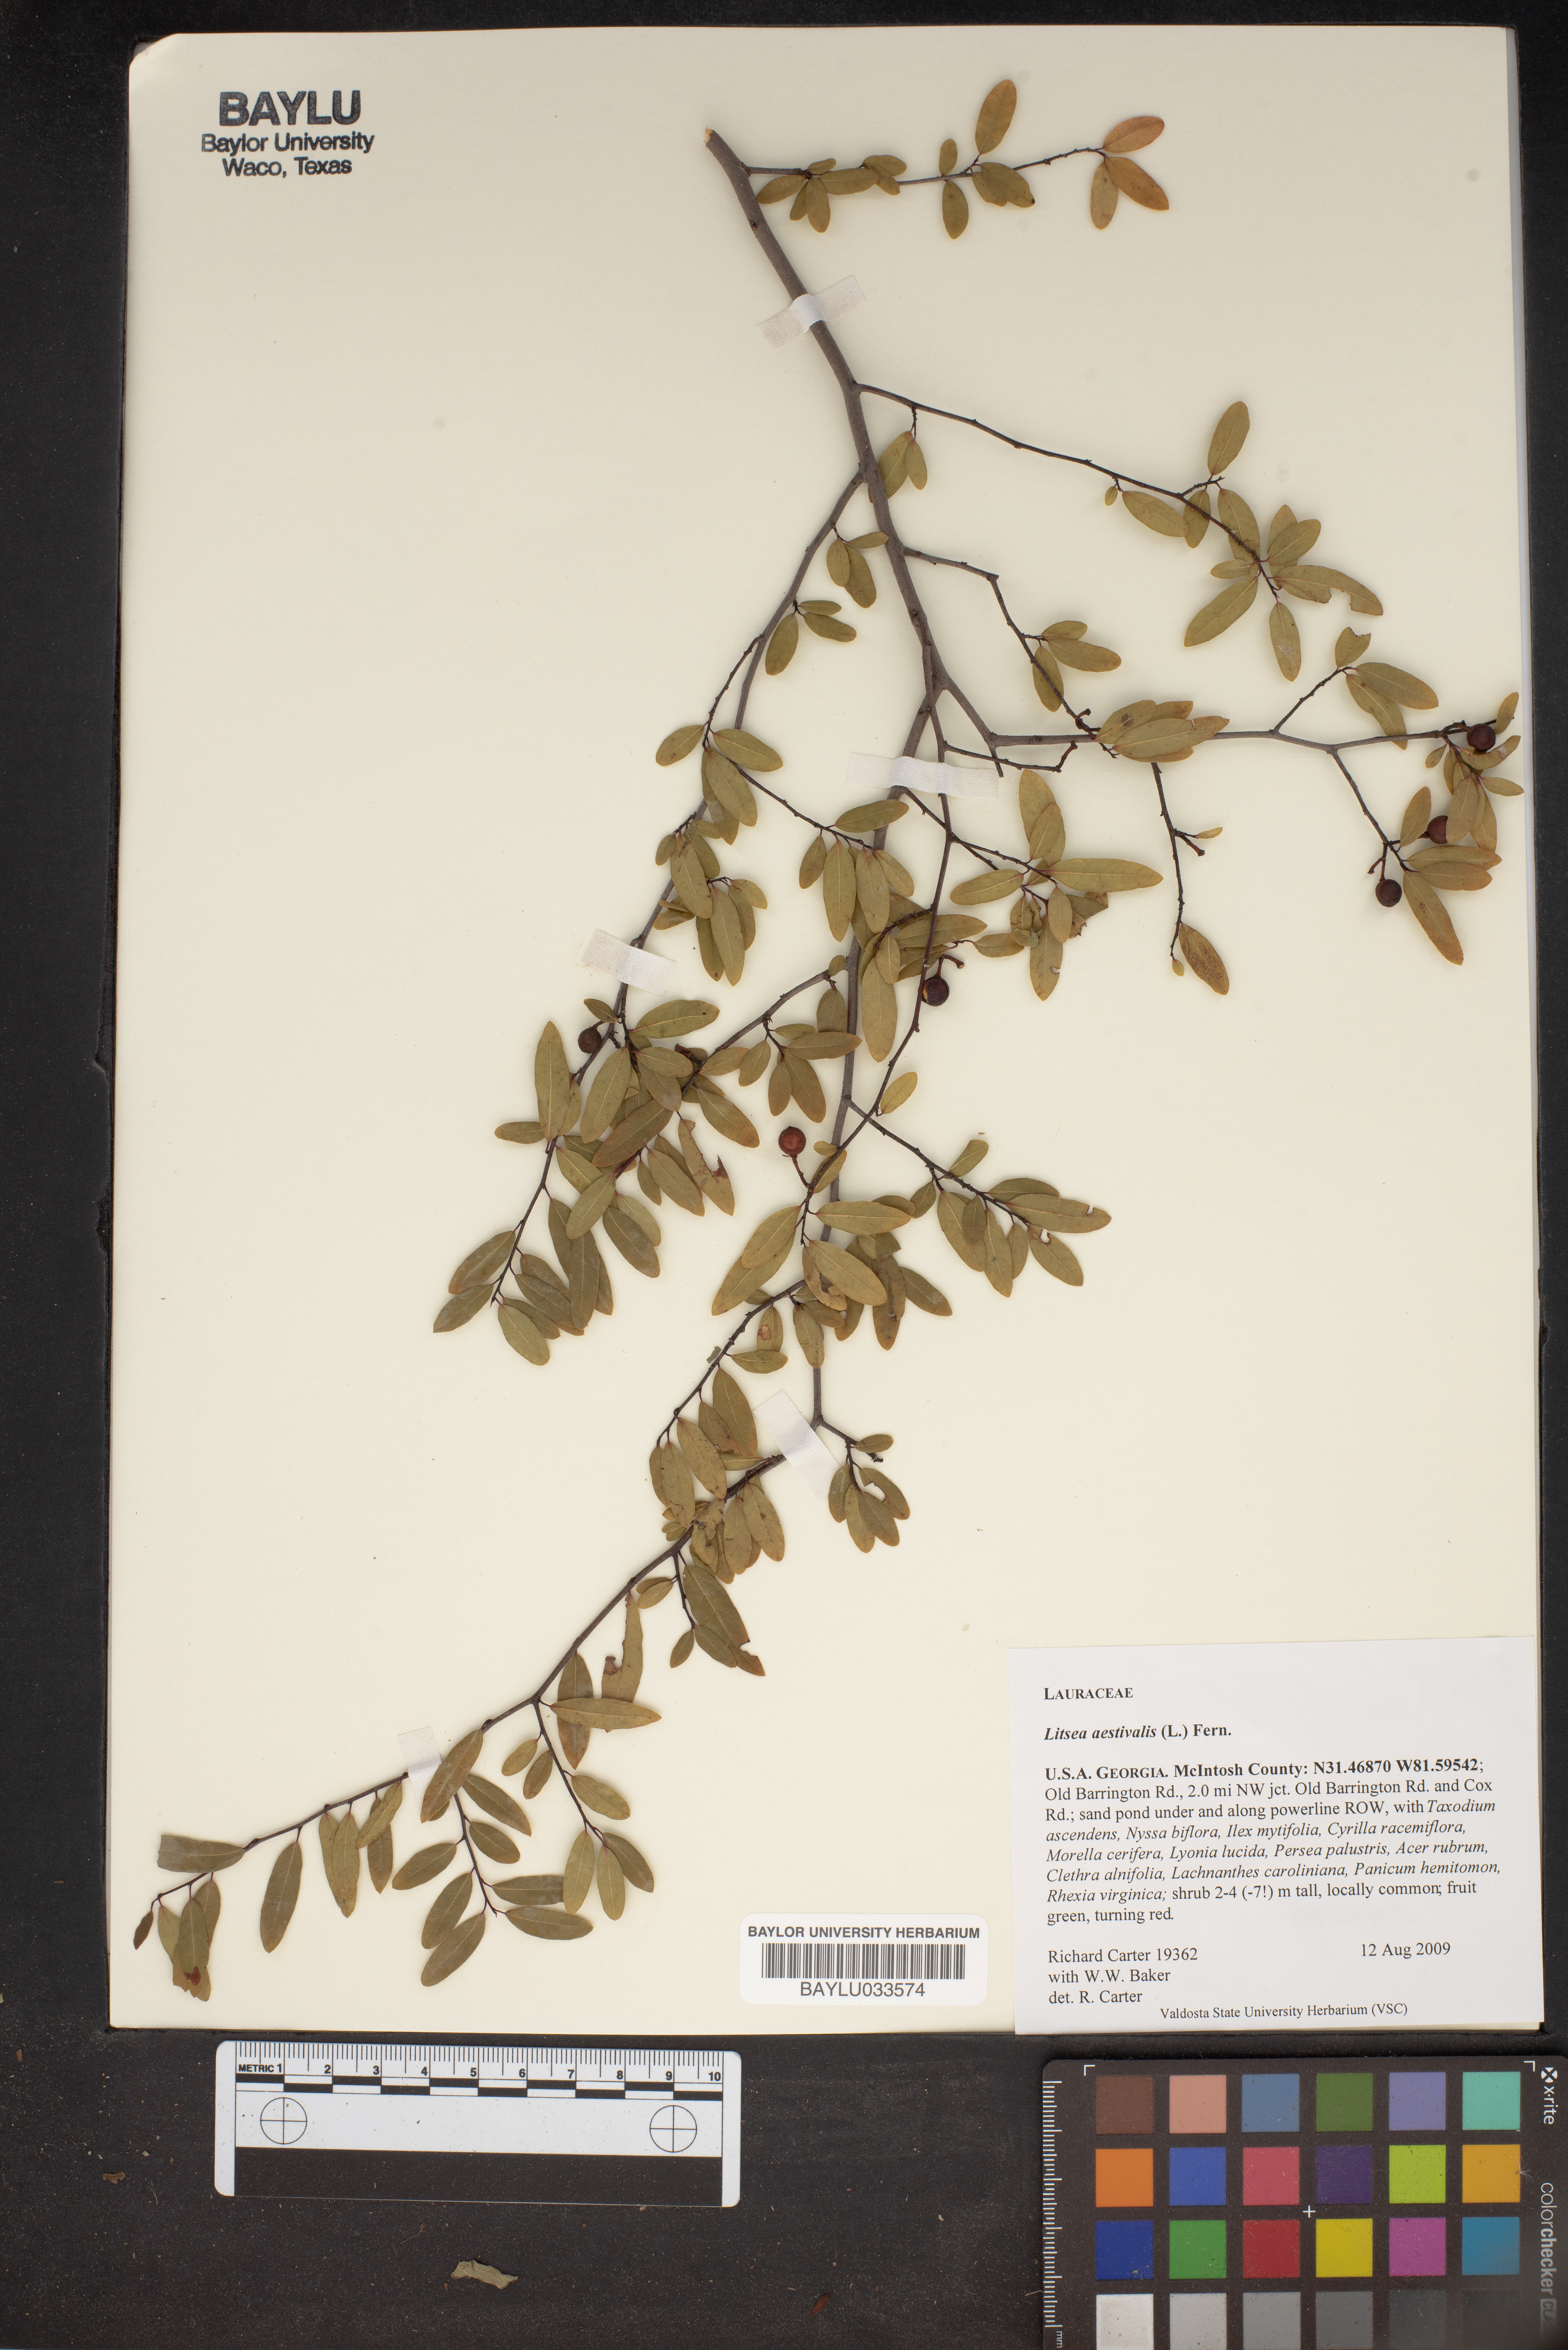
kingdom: Plantae
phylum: Tracheophyta
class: Magnoliopsida
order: Laurales
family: Lauraceae
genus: Litsea
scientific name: Litsea aestivalis
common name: Pondspice
